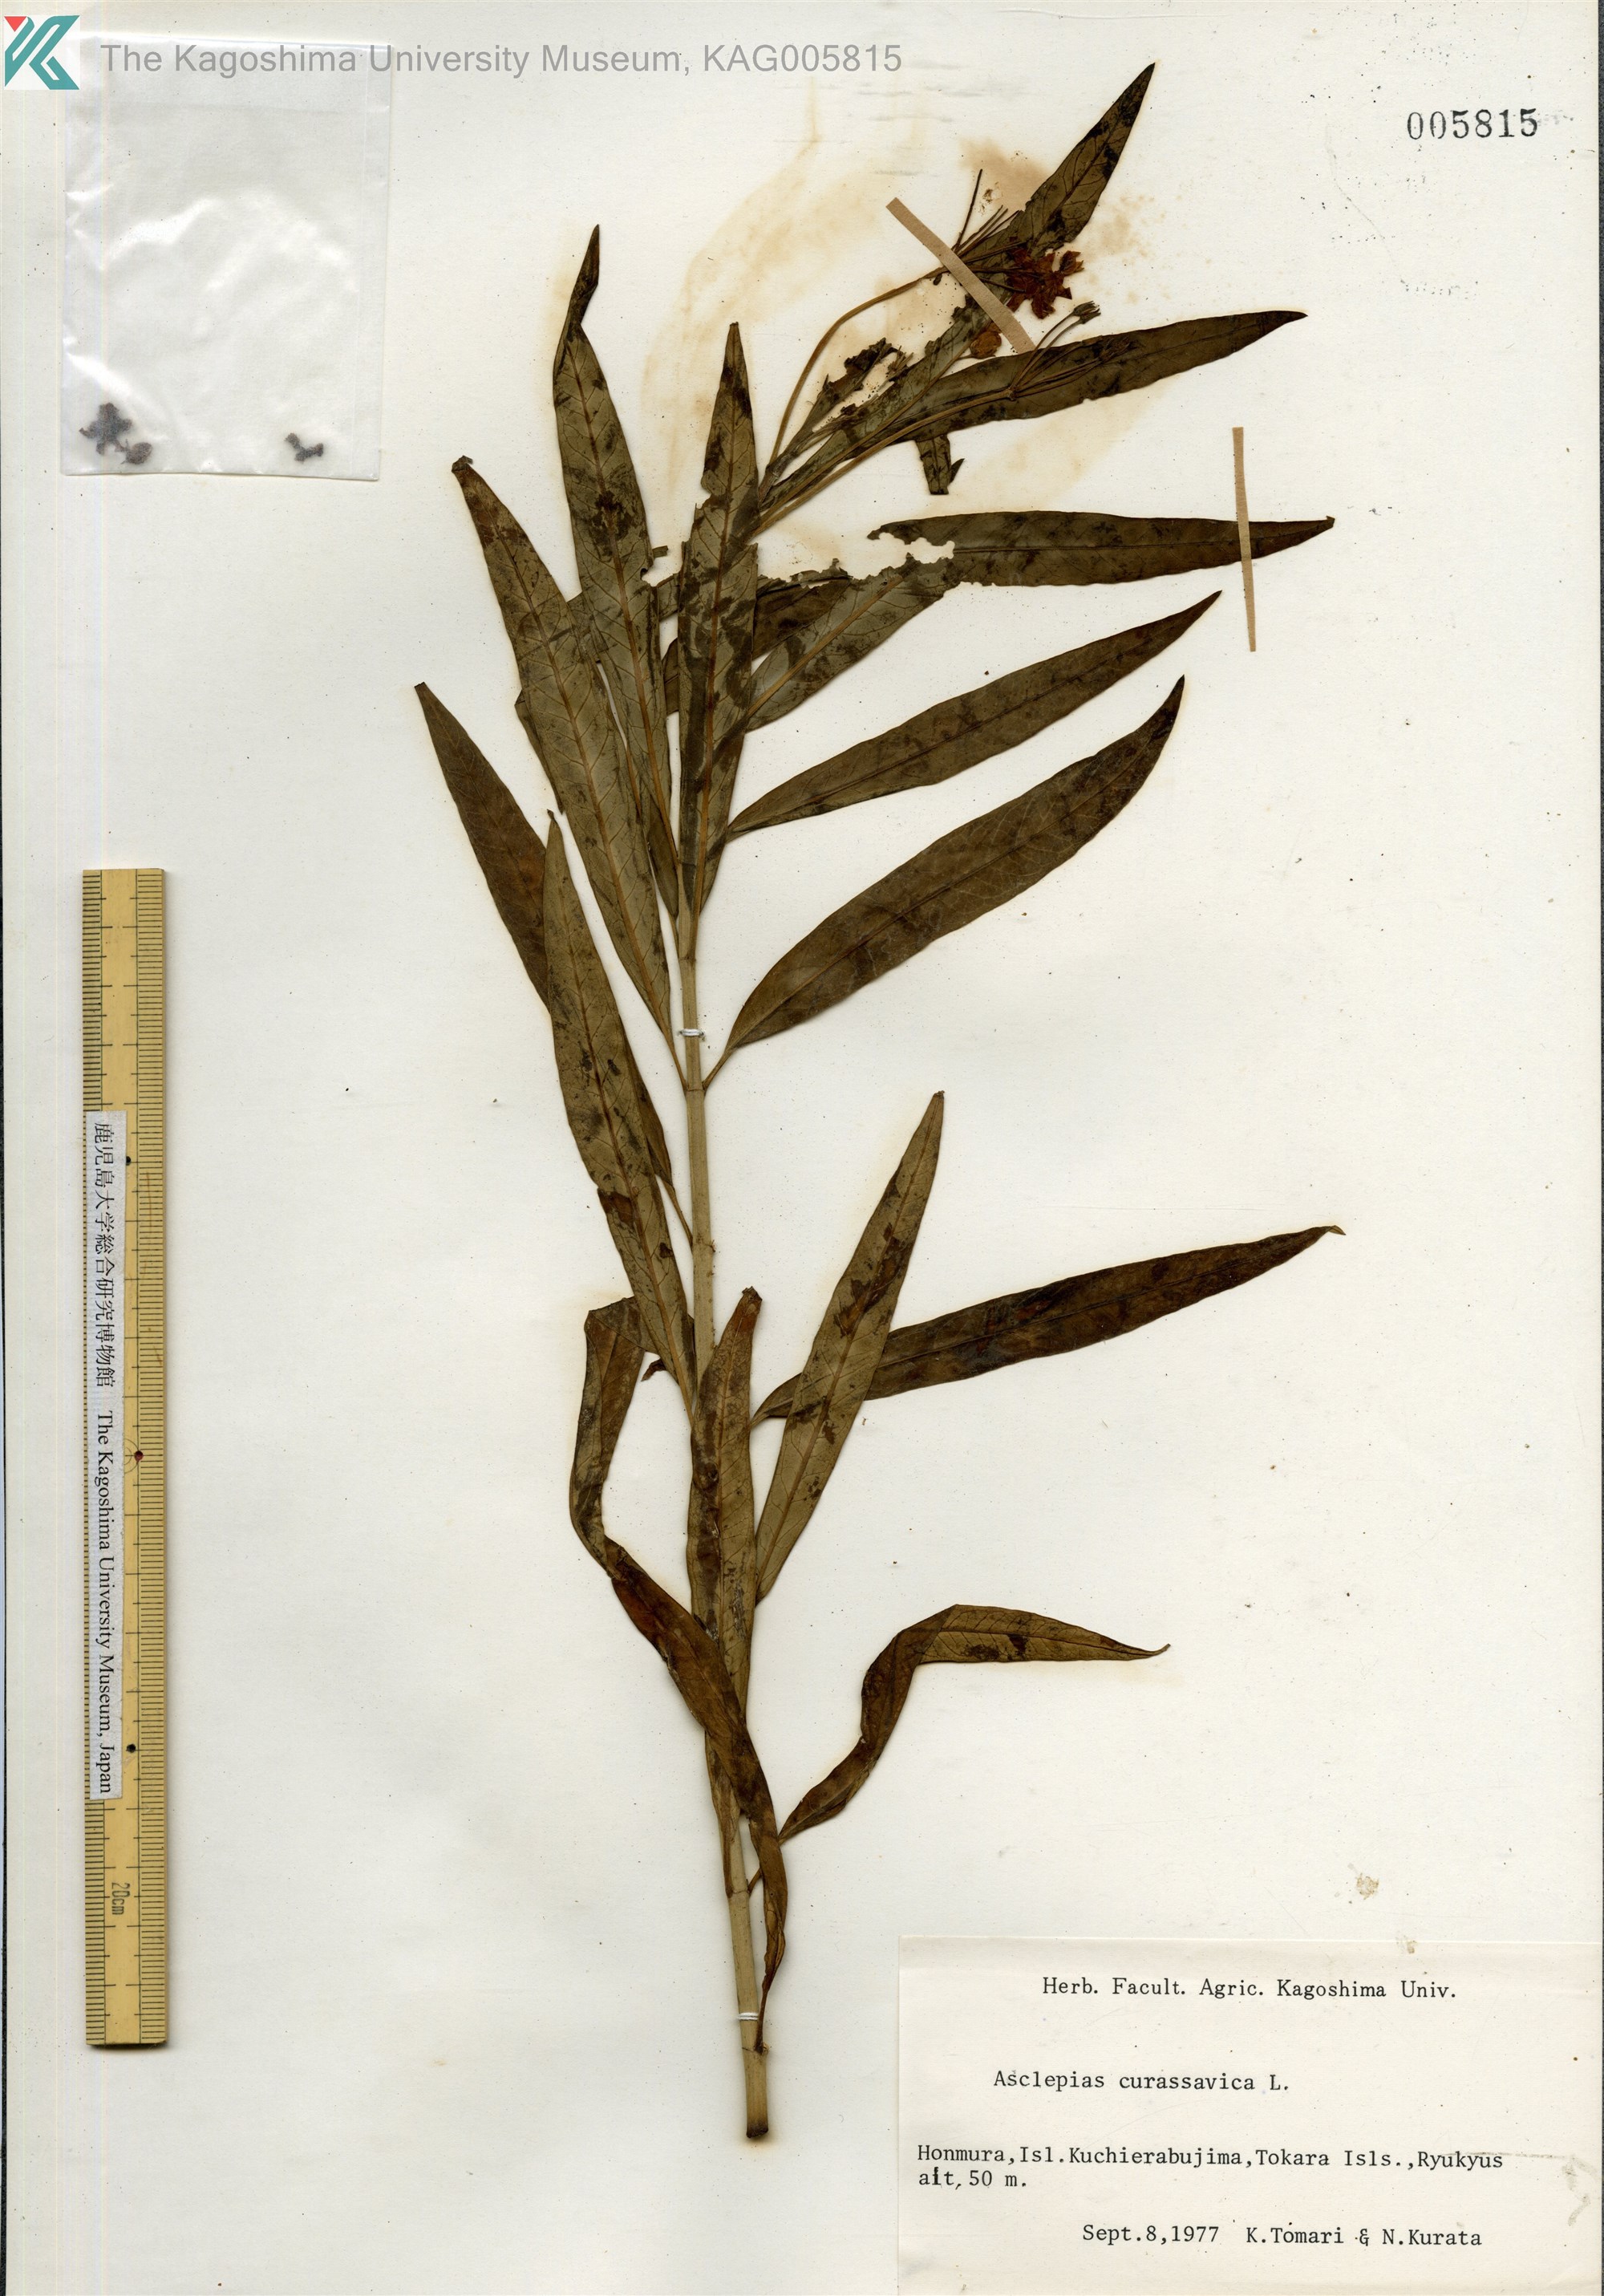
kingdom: Plantae
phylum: Tracheophyta
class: Magnoliopsida
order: Gentianales
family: Apocynaceae
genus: Asclepias
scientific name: Asclepias
